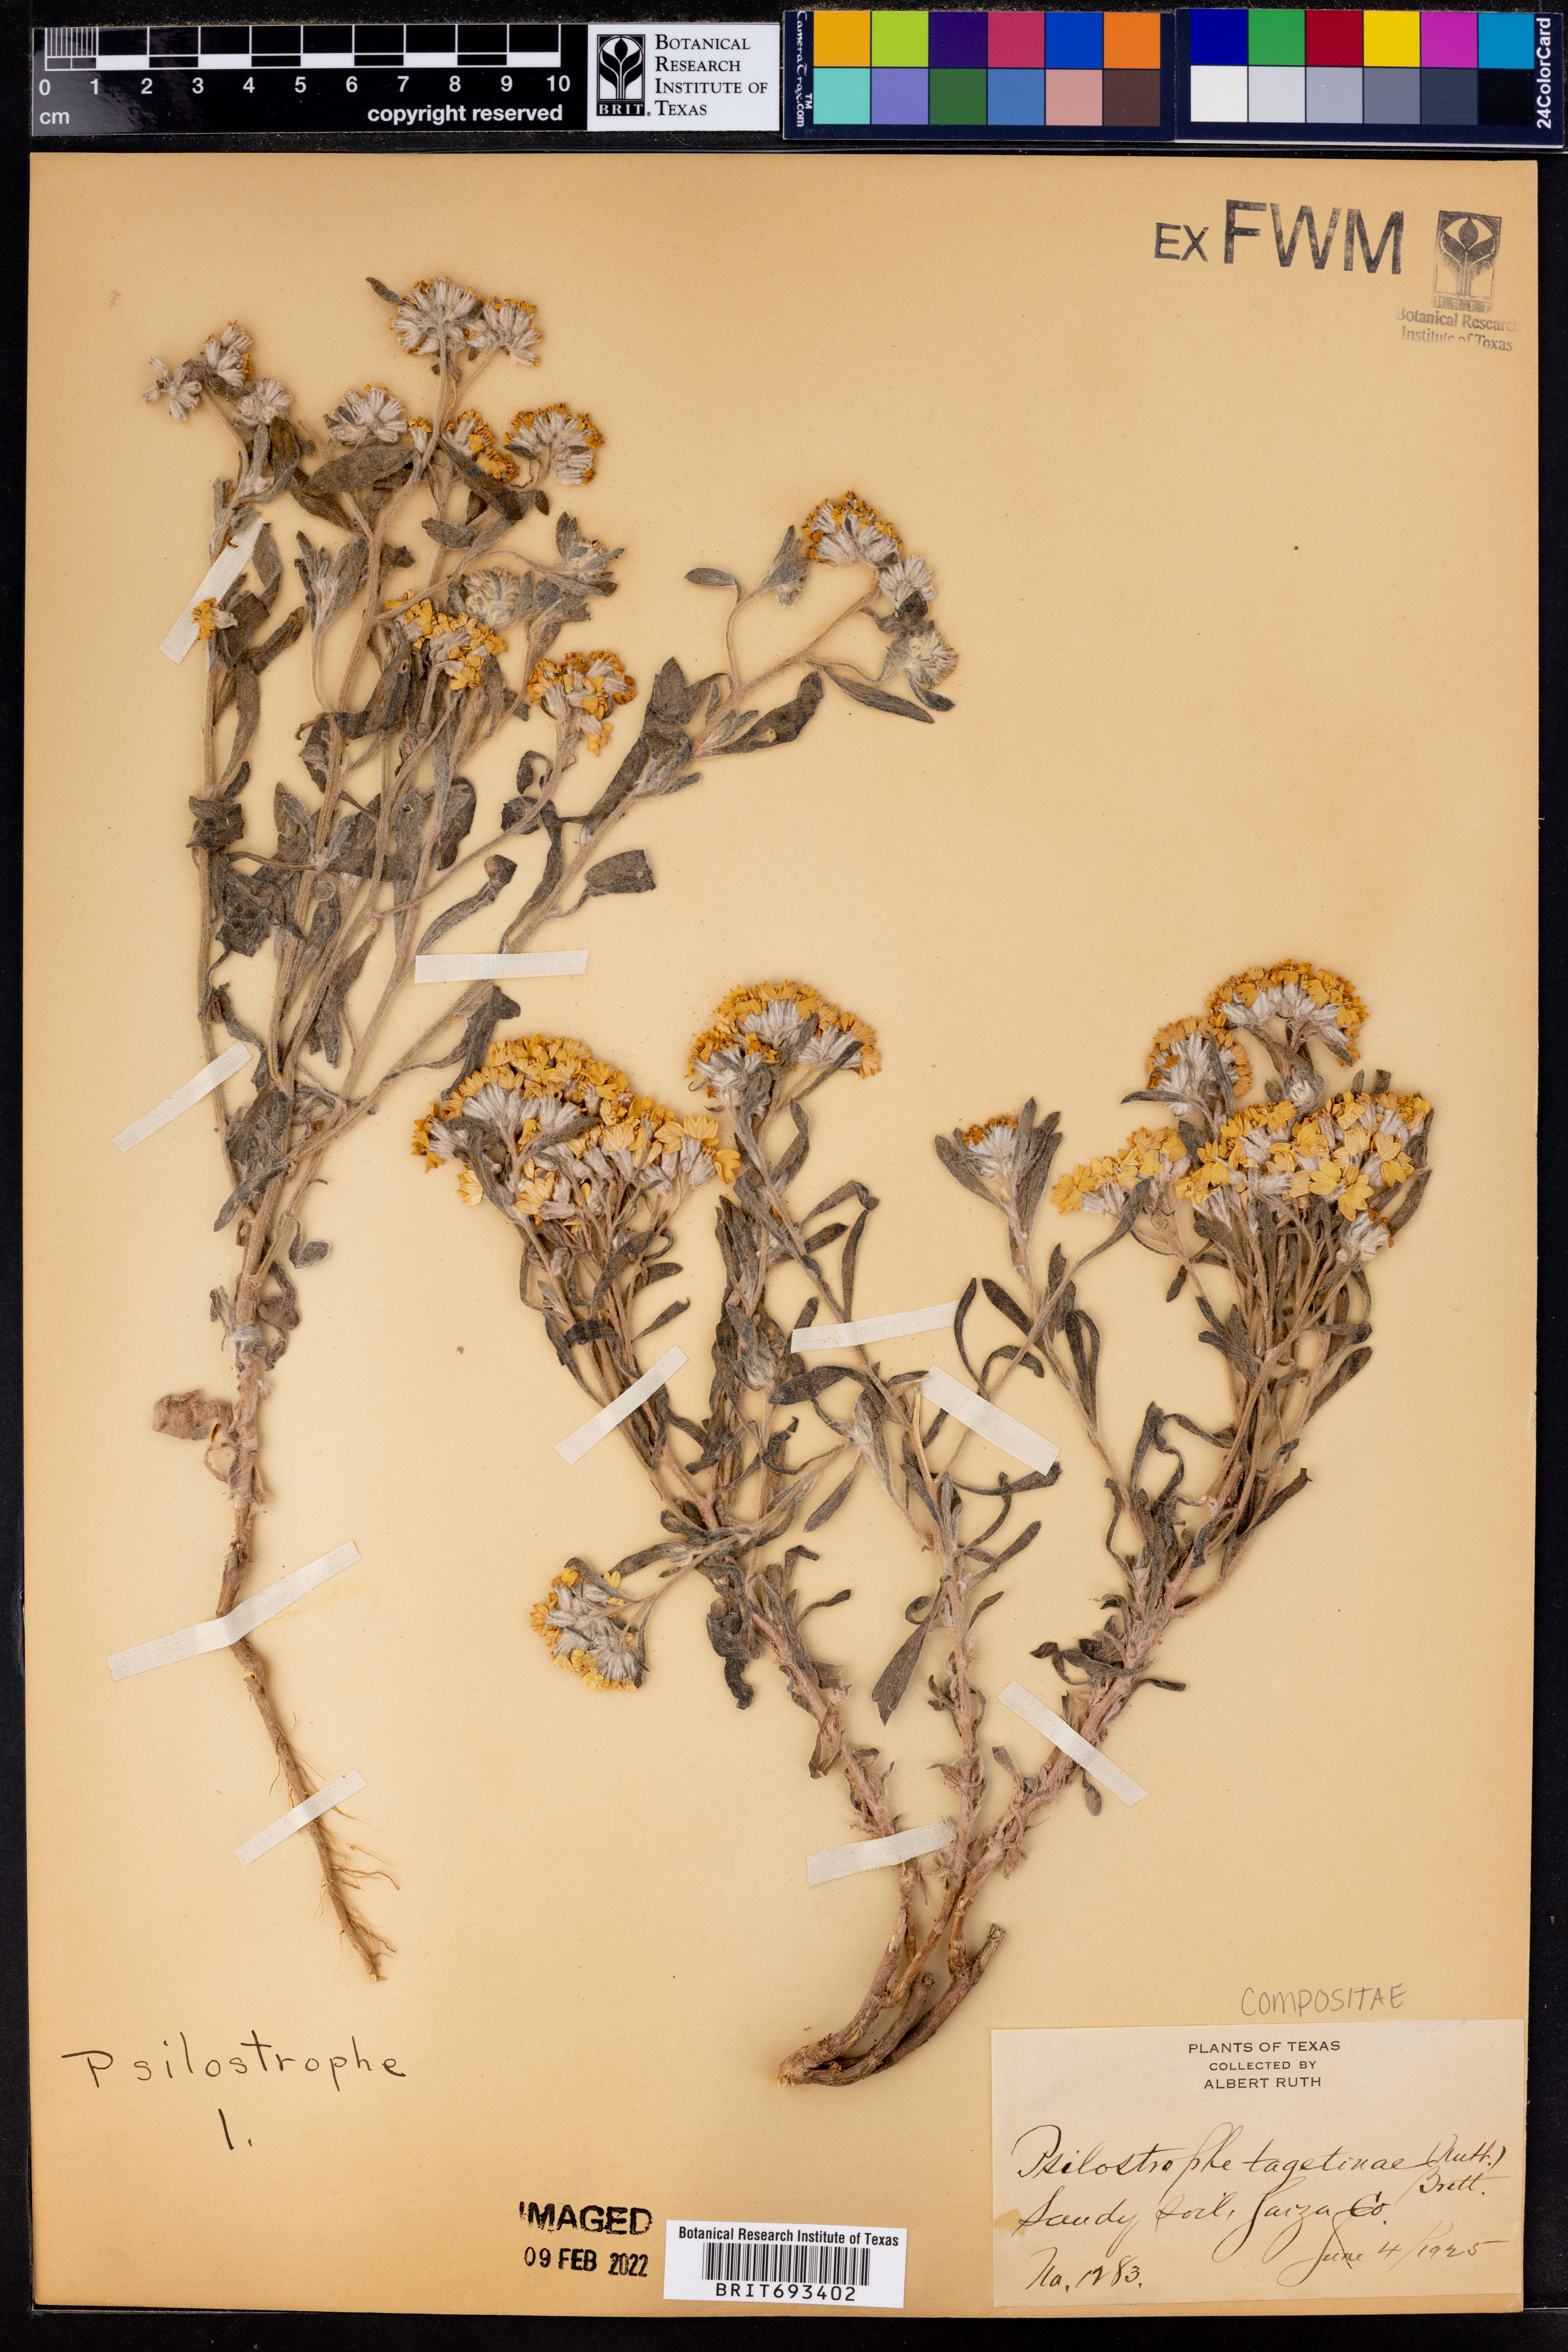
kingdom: Plantae
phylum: Tracheophyta
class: Magnoliopsida
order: Asterales
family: Asteraceae
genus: Psilostrophe
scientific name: Psilostrophe tagetina
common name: Marigold paper-flower
